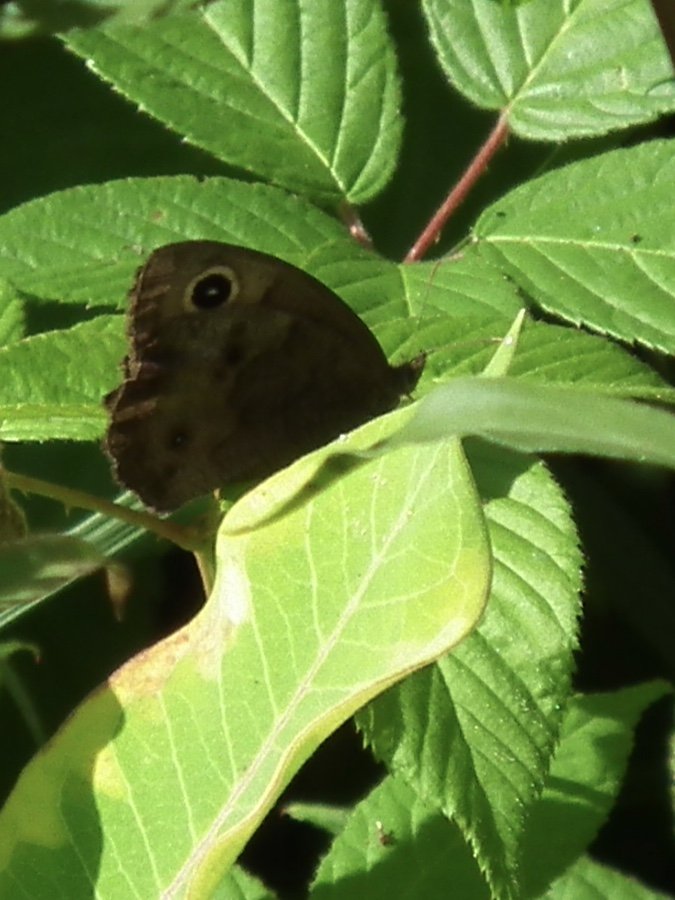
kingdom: Animalia
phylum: Arthropoda
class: Insecta
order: Lepidoptera
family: Nymphalidae
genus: Cercyonis
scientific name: Cercyonis pegala
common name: Common Wood-Nymph
